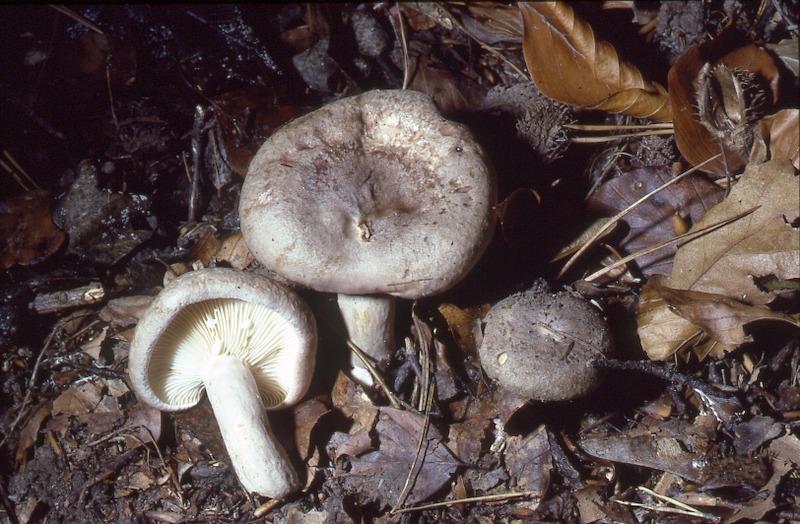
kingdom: Fungi
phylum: Basidiomycota
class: Agaricomycetes
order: Russulales
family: Russulaceae
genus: Lactarius
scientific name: Lactarius blennius
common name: Beech milkcap
